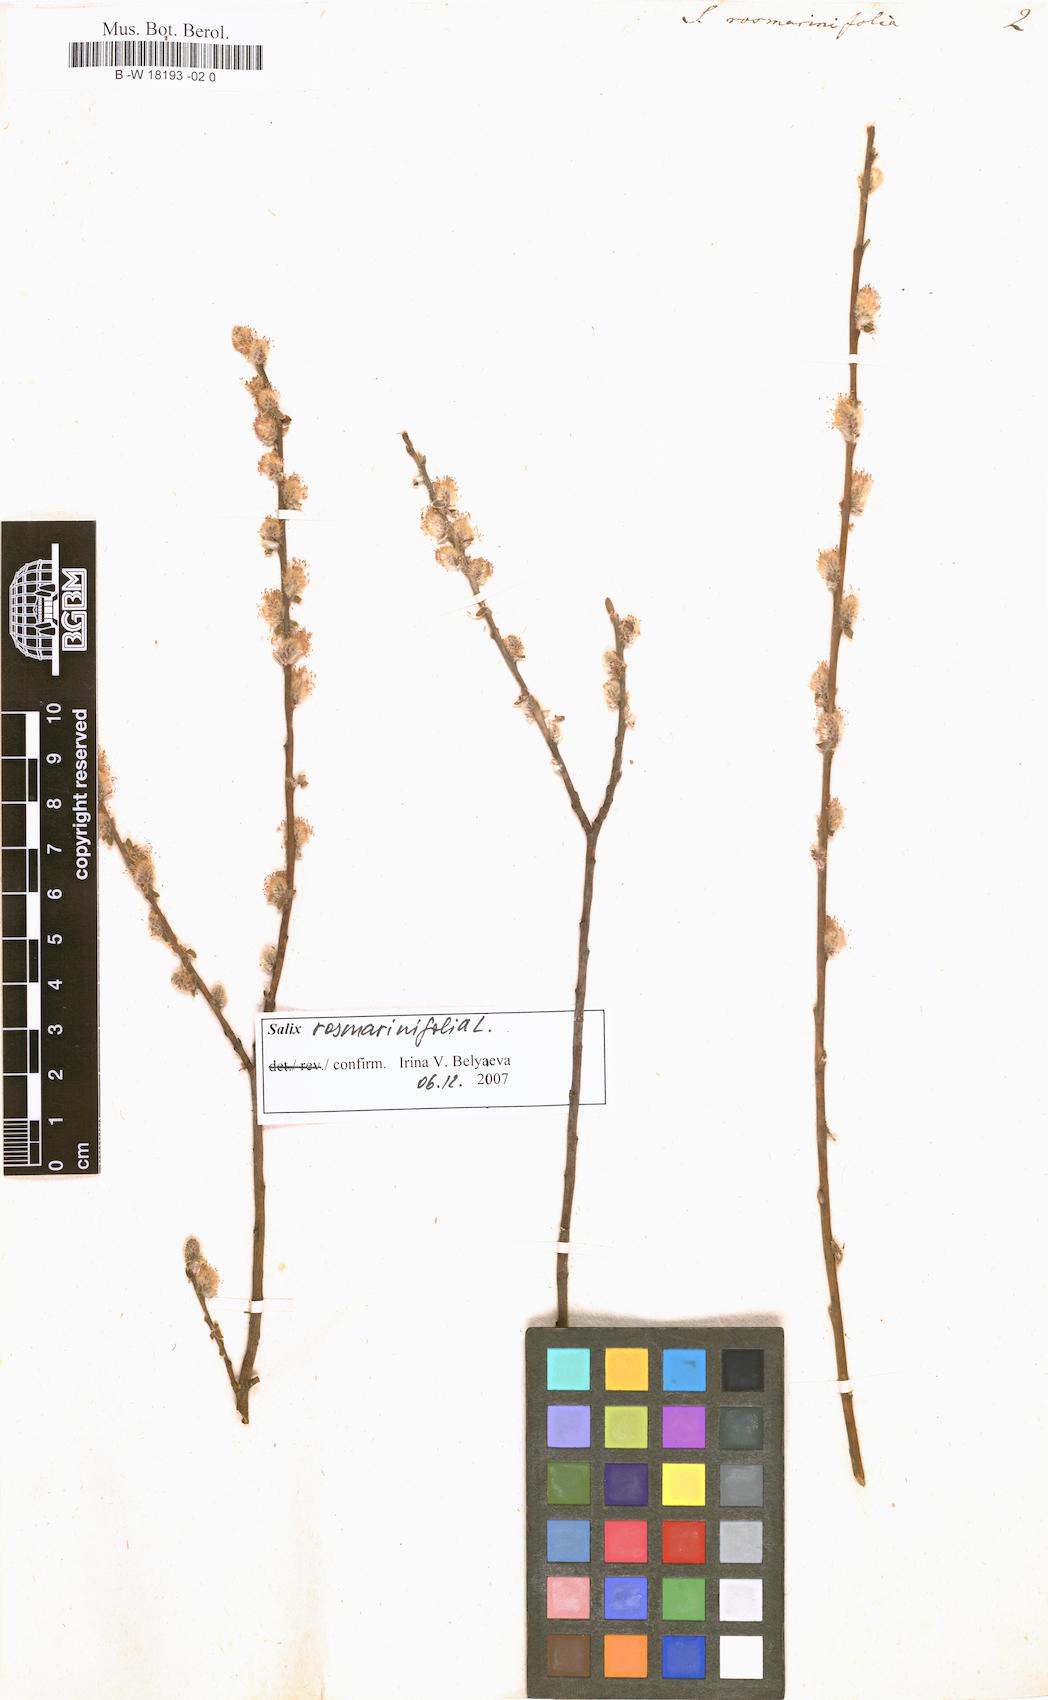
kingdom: Plantae
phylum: Tracheophyta
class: Magnoliopsida
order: Malpighiales
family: Salicaceae
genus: Salix
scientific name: Salix rosmarinifolia
